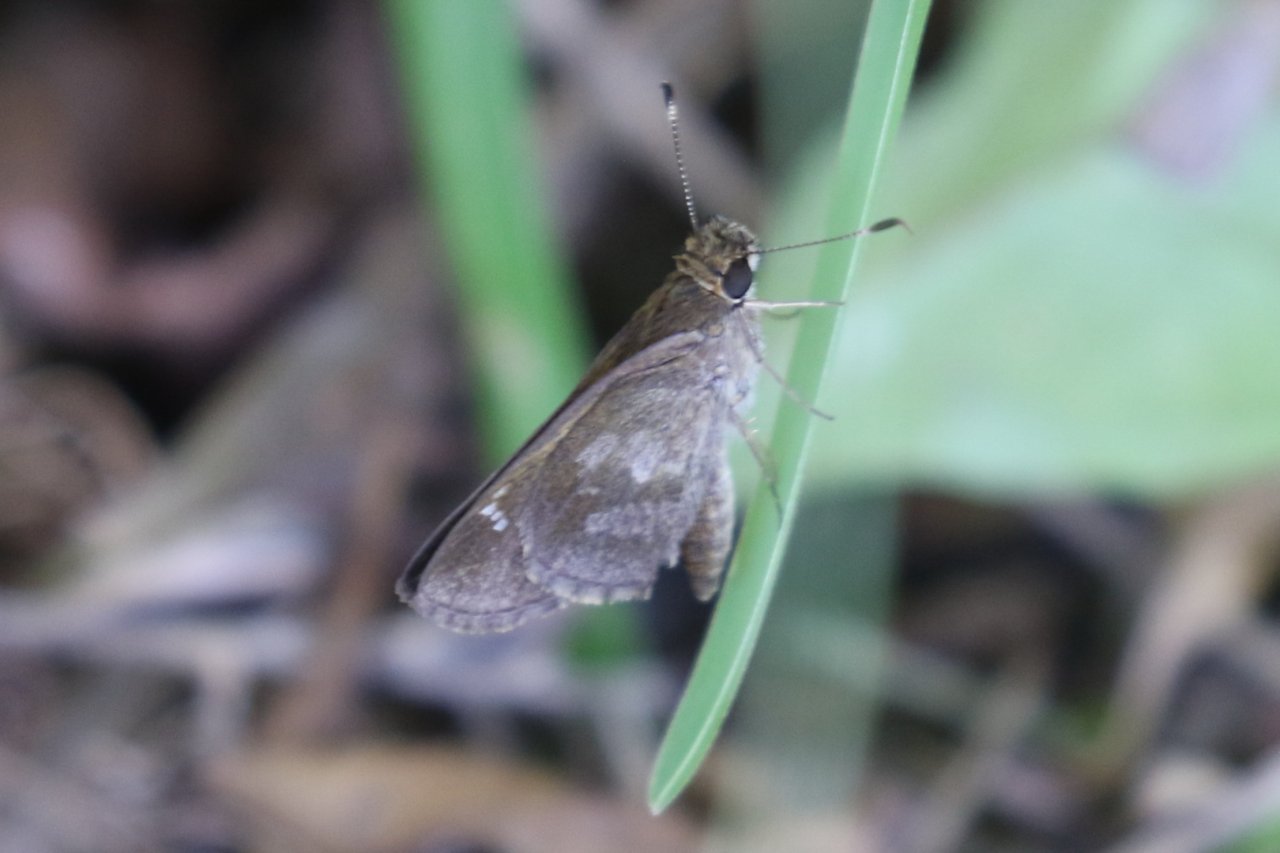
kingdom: Animalia
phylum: Arthropoda
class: Insecta
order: Lepidoptera
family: Hesperiidae
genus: Cymaenes
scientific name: Cymaenes odilia
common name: Fawn-spotted Skipper
